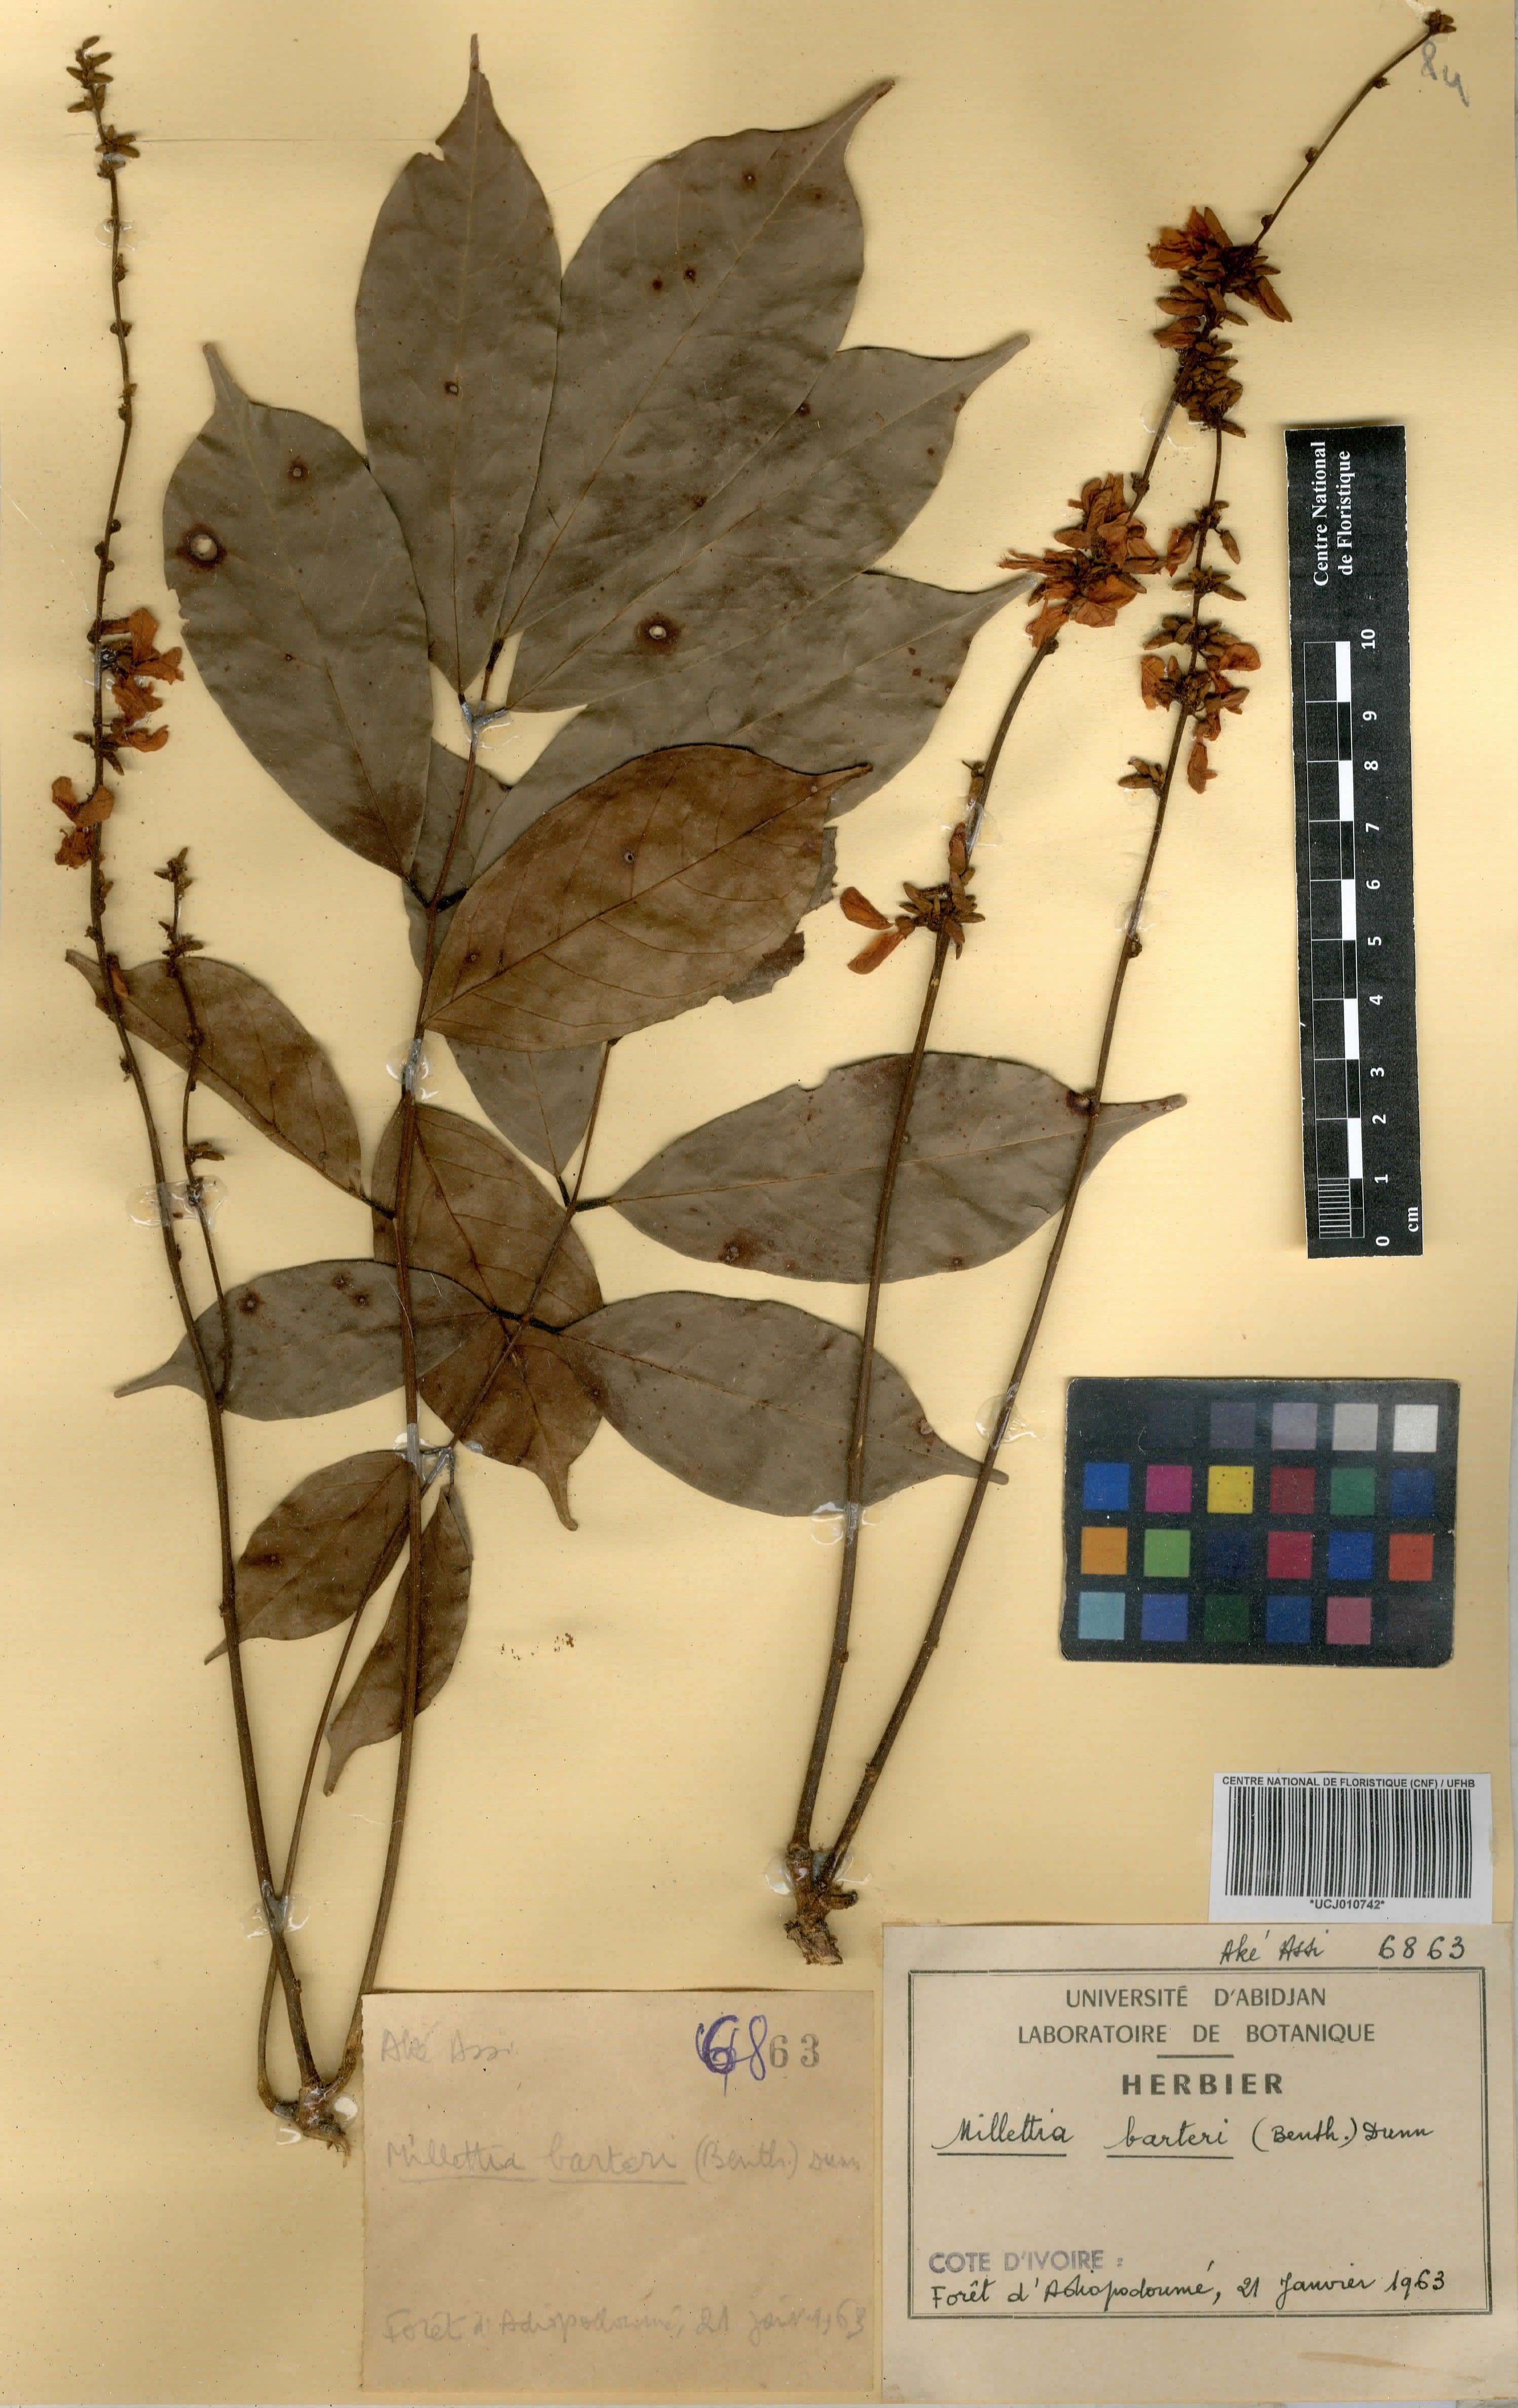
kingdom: Plantae
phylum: Tracheophyta
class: Magnoliopsida
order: Fabales
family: Fabaceae
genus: Millettia
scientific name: Millettia barteri
